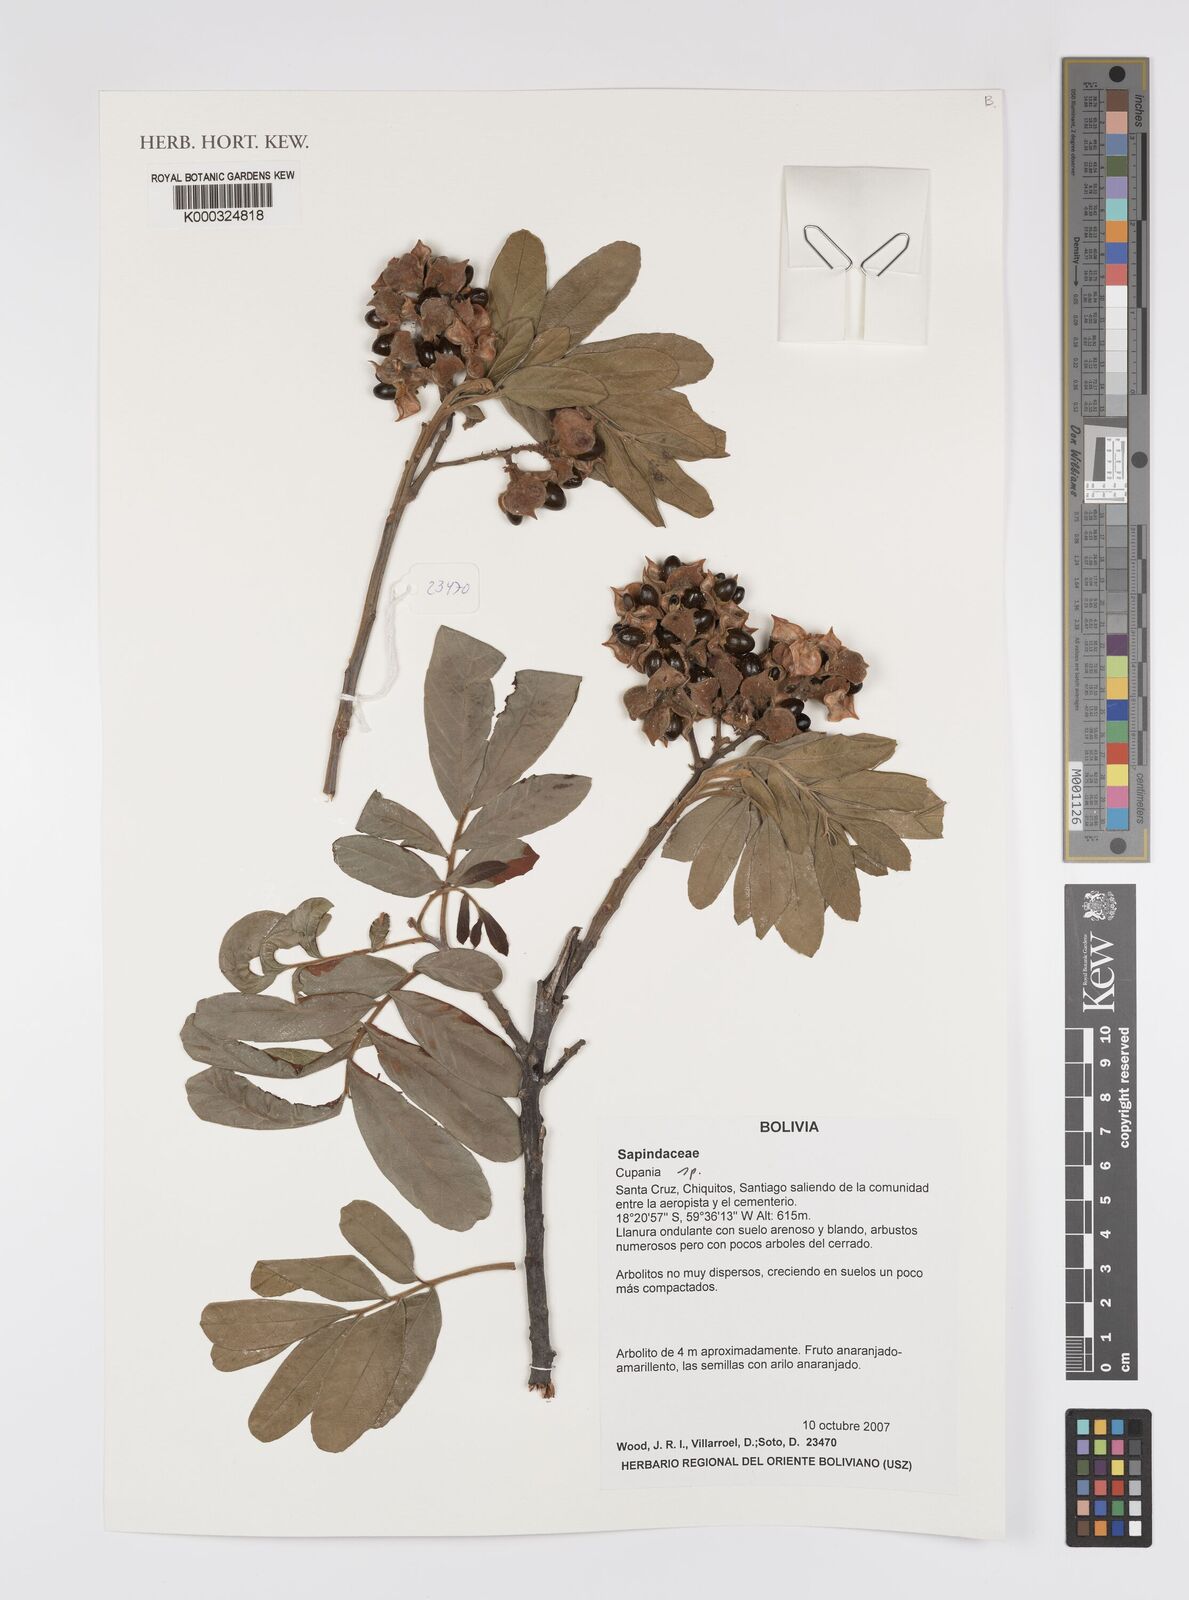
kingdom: Plantae
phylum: Tracheophyta
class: Magnoliopsida
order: Sapindales
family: Sapindaceae
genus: Cupania
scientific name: Cupania
